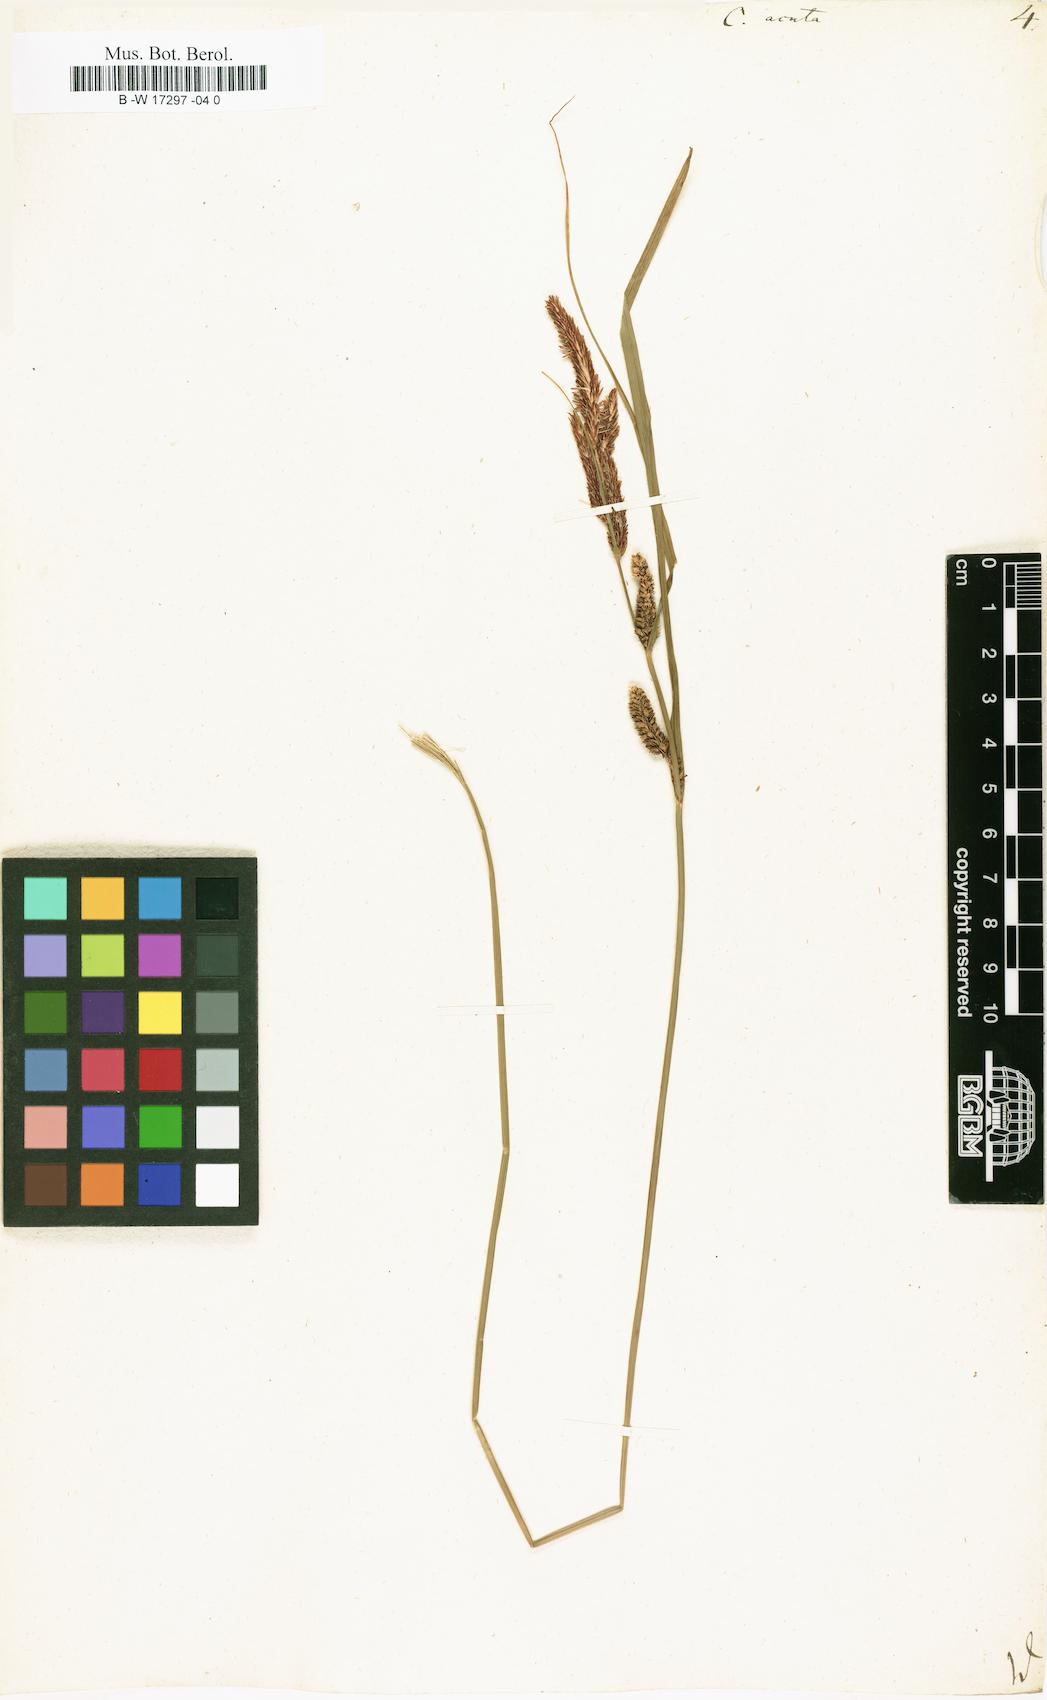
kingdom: Plantae
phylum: Tracheophyta
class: Liliopsida
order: Poales
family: Cyperaceae
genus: Carex
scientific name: Carex acuta
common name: Slender tufted-sedge
